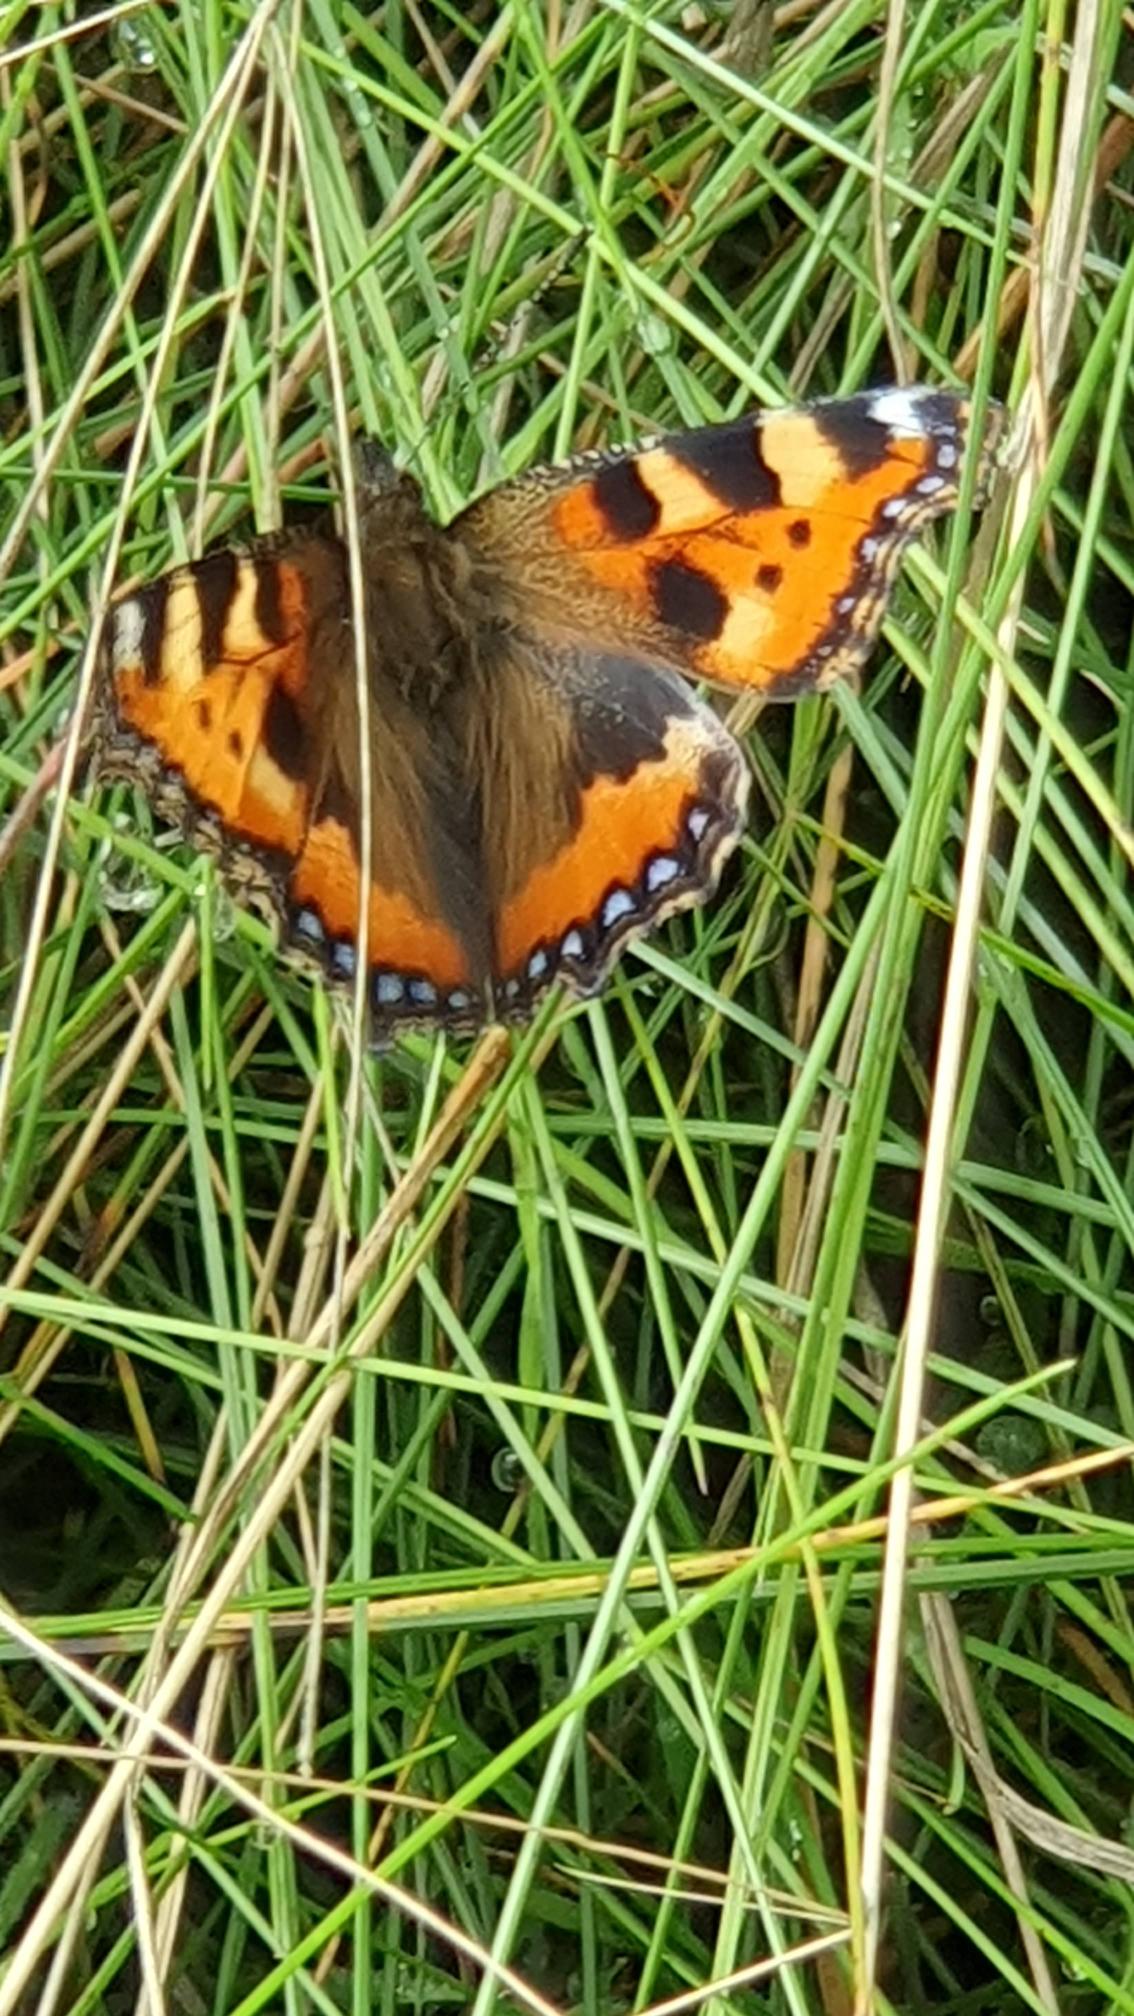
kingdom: Animalia
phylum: Arthropoda
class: Insecta
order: Lepidoptera
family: Nymphalidae
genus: Aglais
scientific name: Aglais urticae
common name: Nældens takvinge
